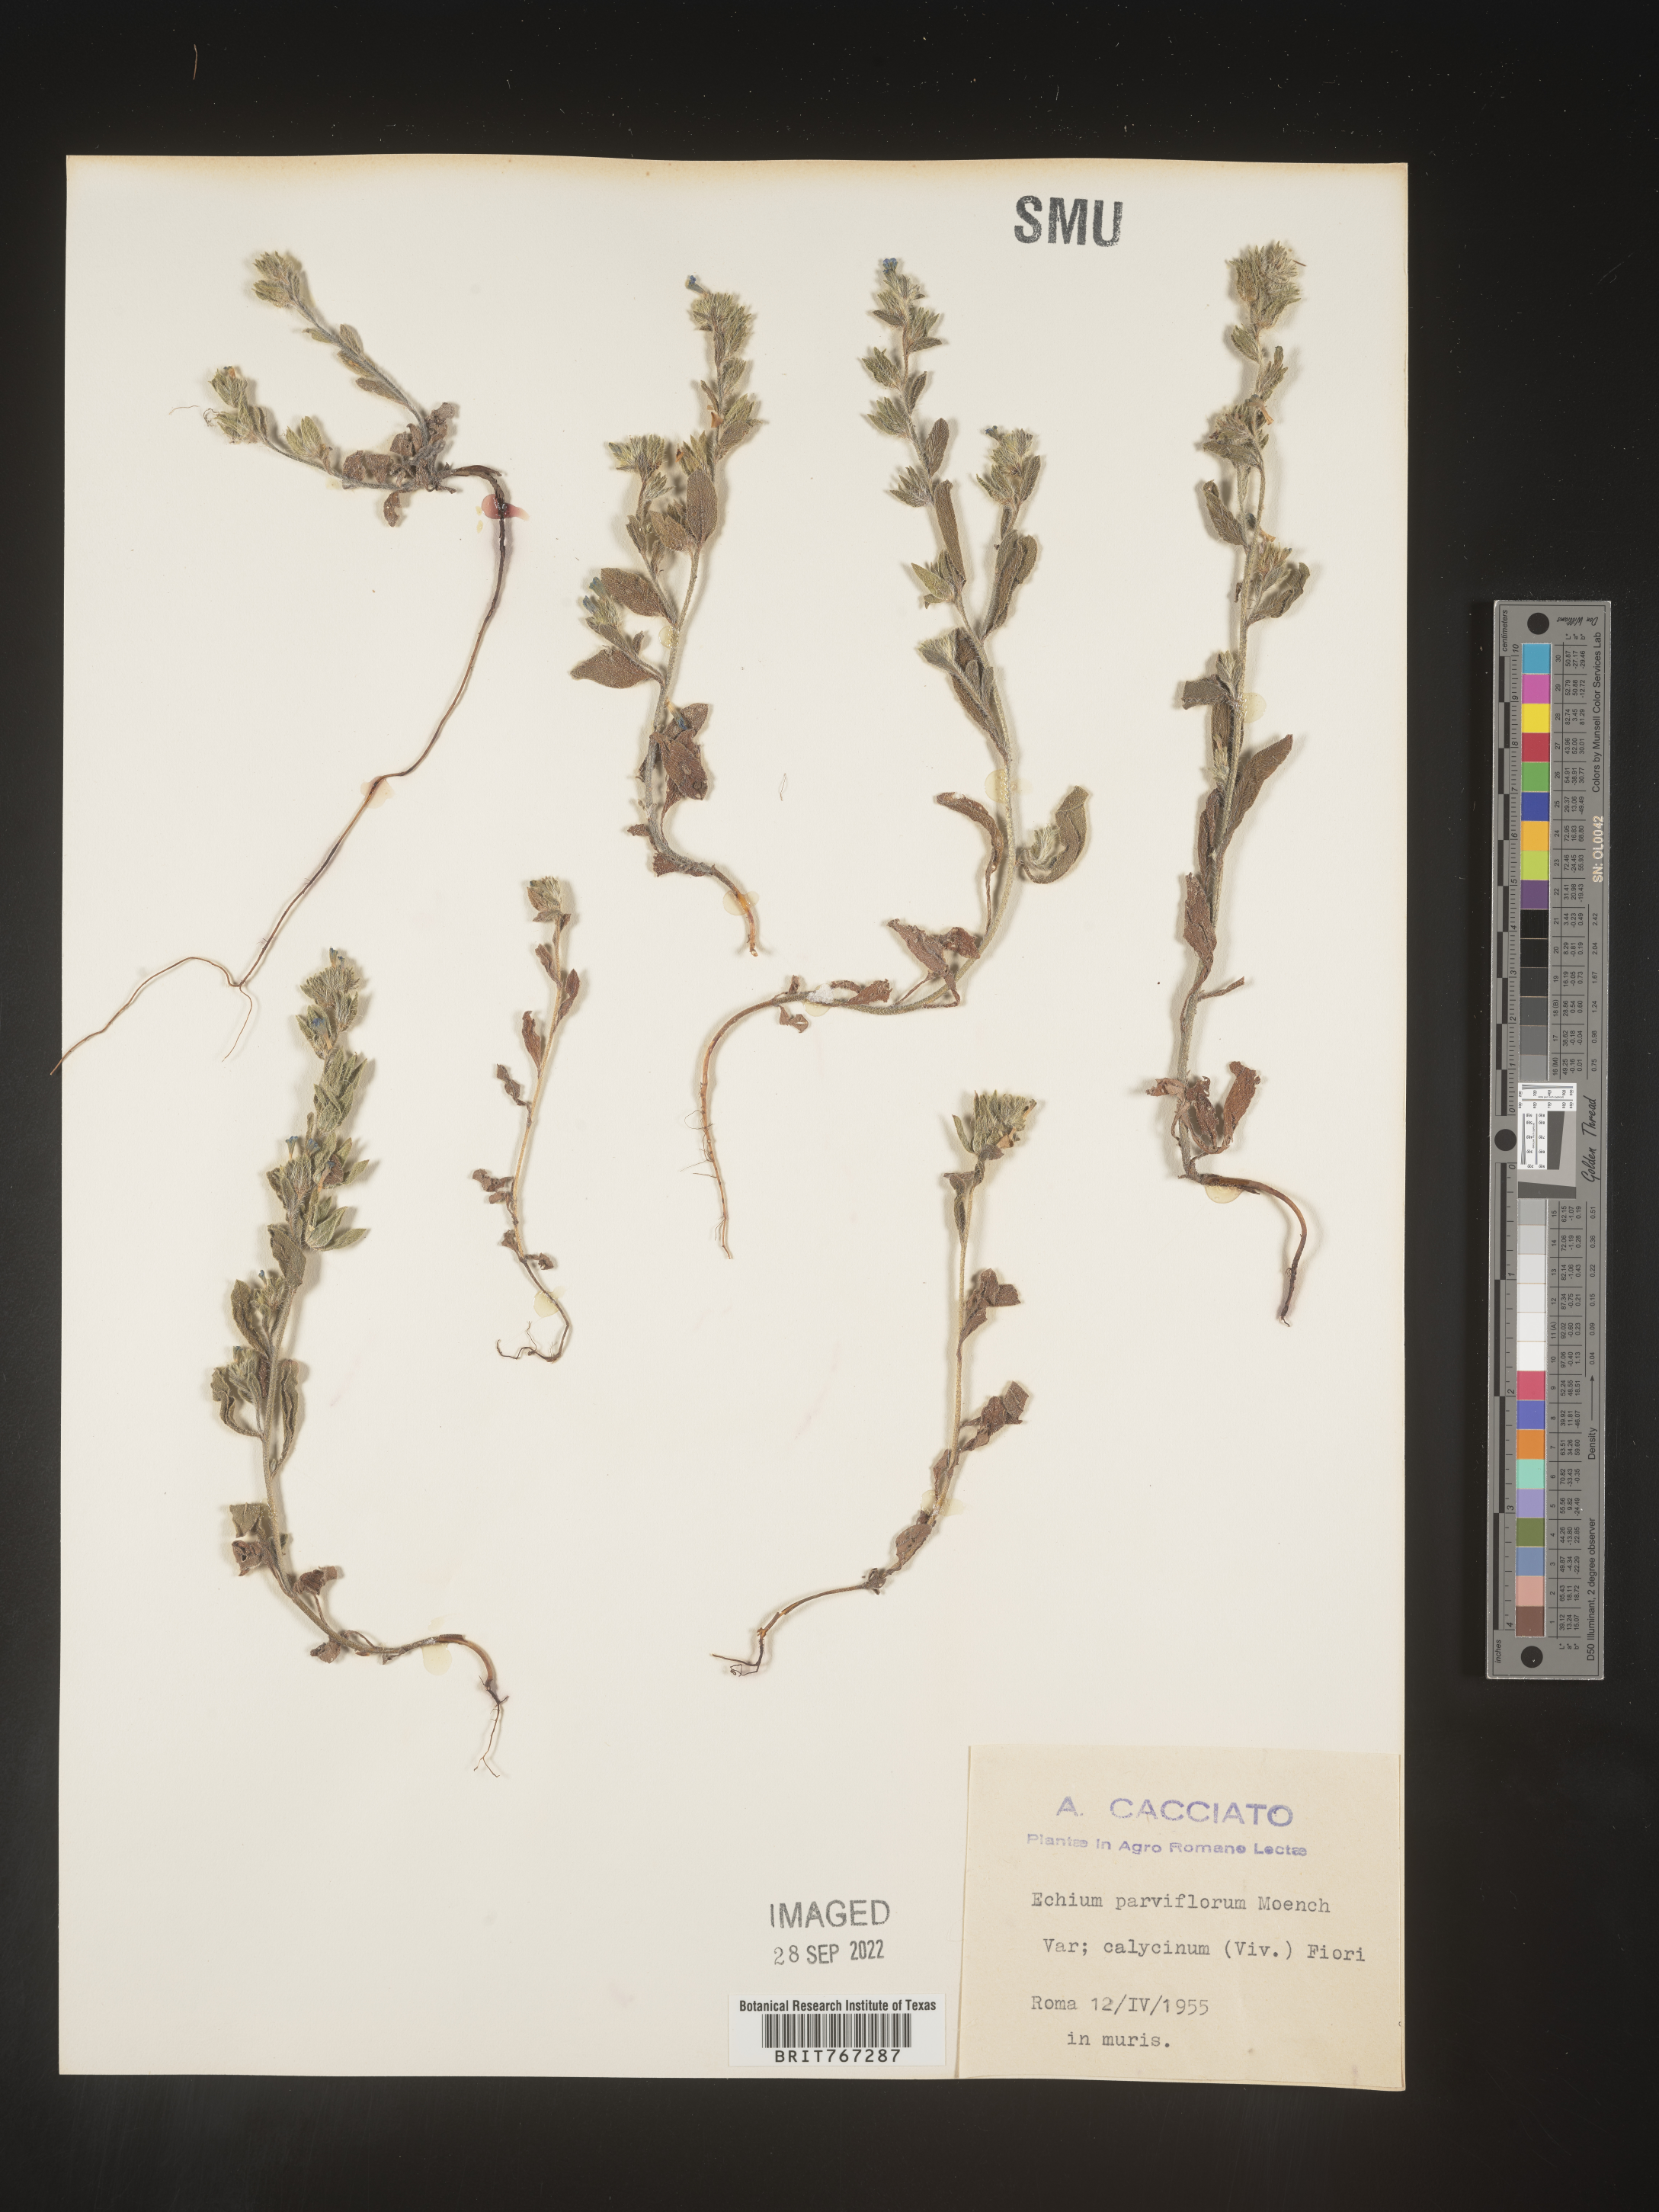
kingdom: Plantae
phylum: Tracheophyta
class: Magnoliopsida
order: Boraginales
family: Boraginaceae
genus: Echium
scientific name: Echium
